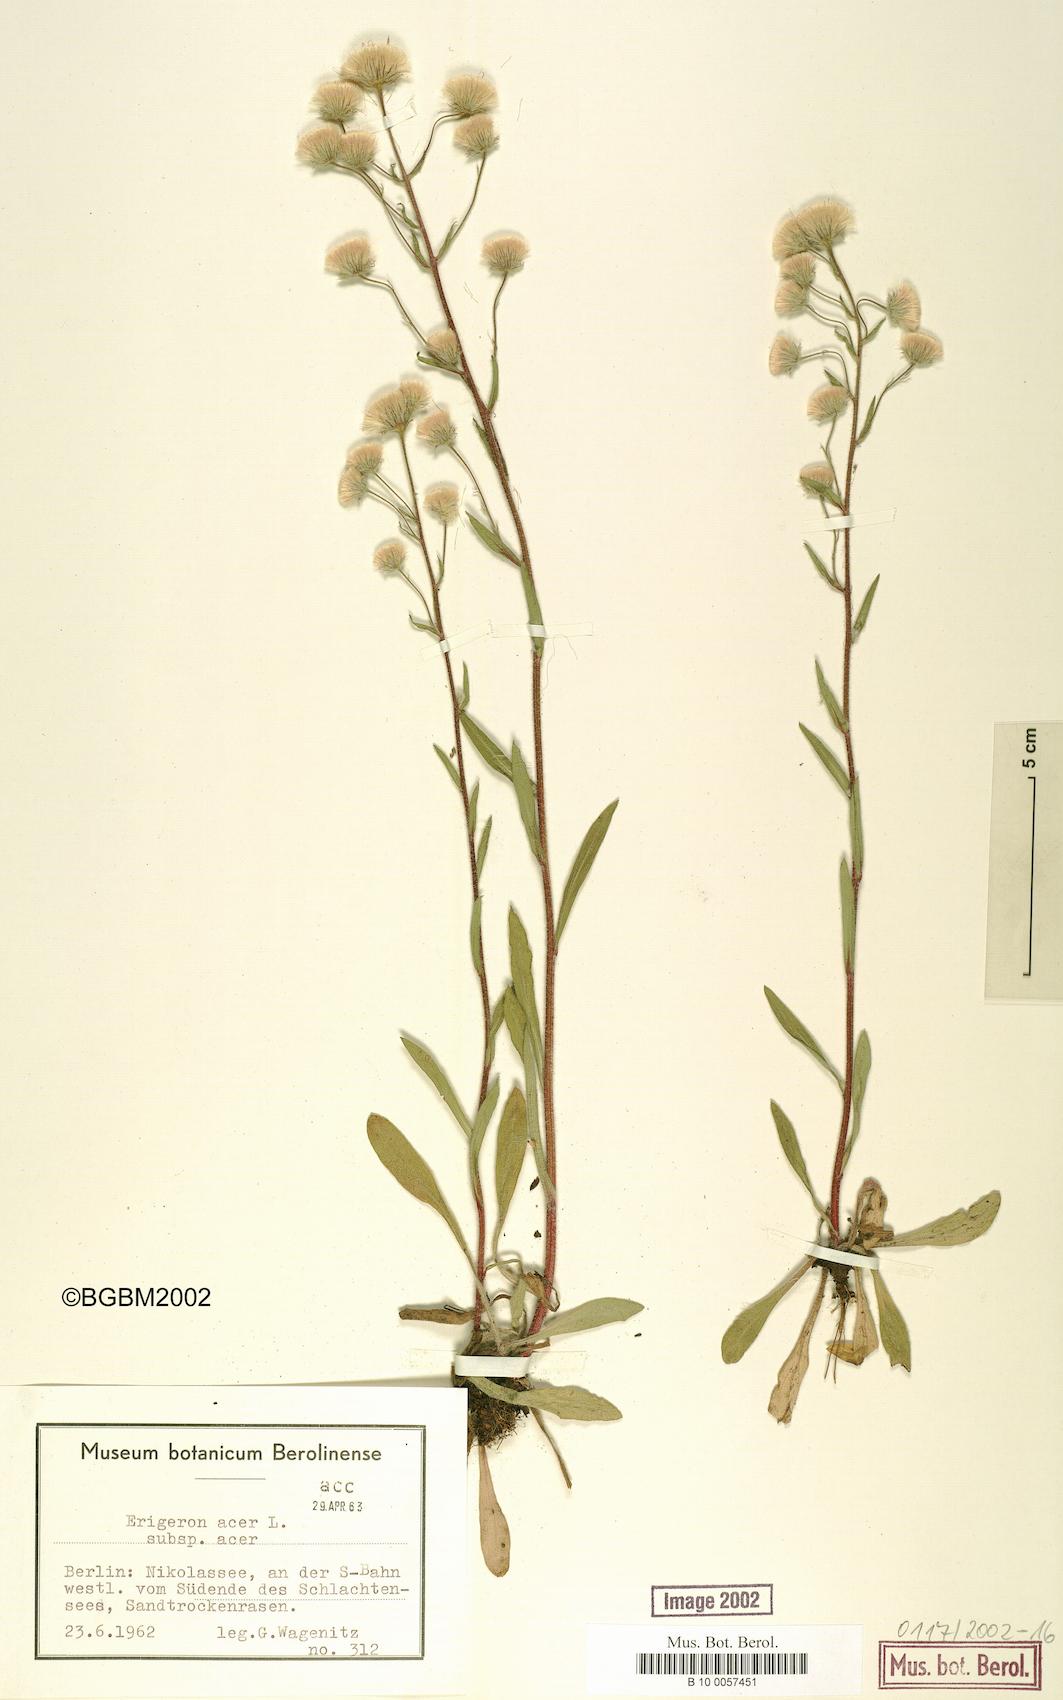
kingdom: Plantae
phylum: Tracheophyta
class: Magnoliopsida
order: Asterales
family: Asteraceae
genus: Erigeron
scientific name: Erigeron acris
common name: Blue fleabane
